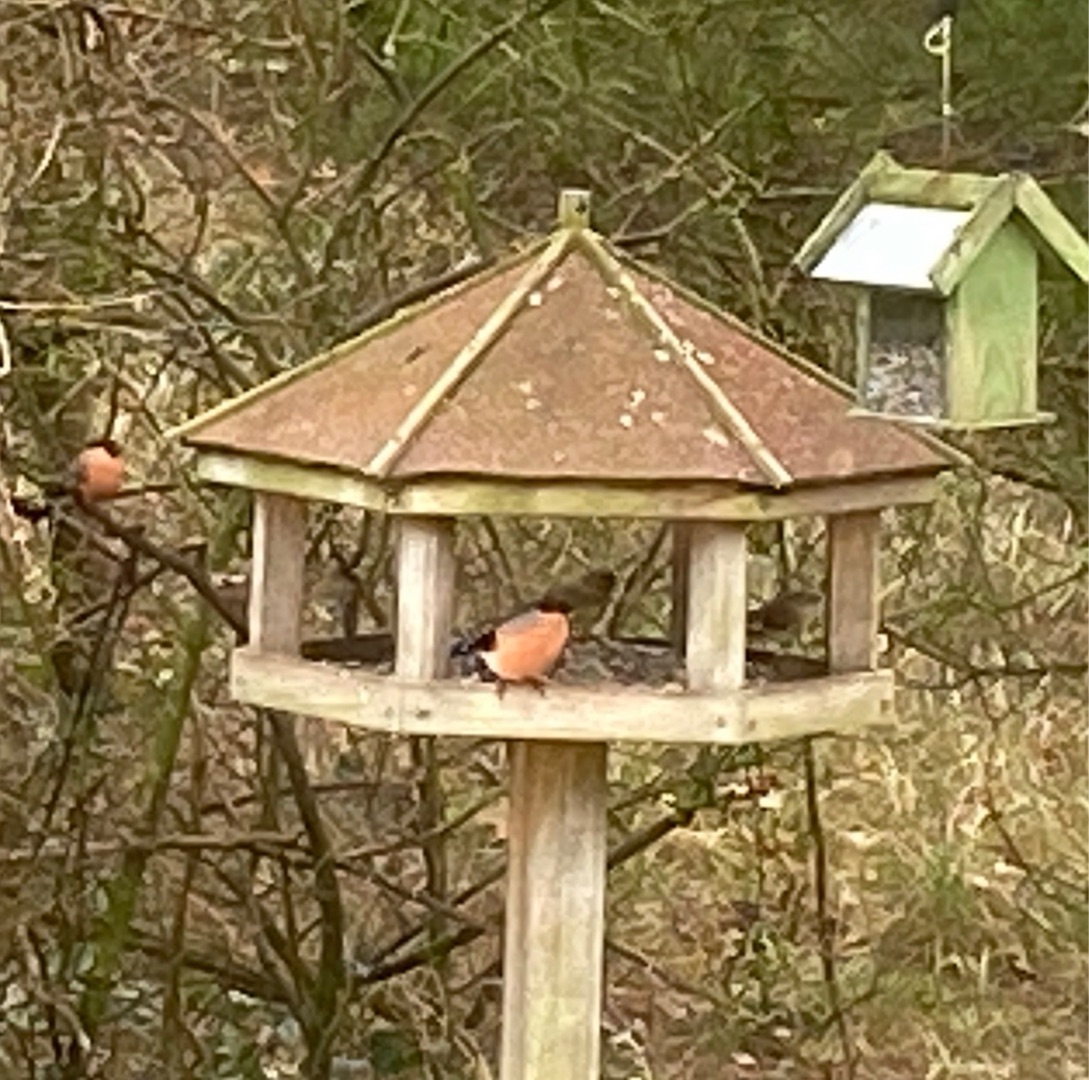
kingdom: Animalia
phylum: Chordata
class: Aves
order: Passeriformes
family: Fringillidae
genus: Pyrrhula
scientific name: Pyrrhula pyrrhula
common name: Dompap
